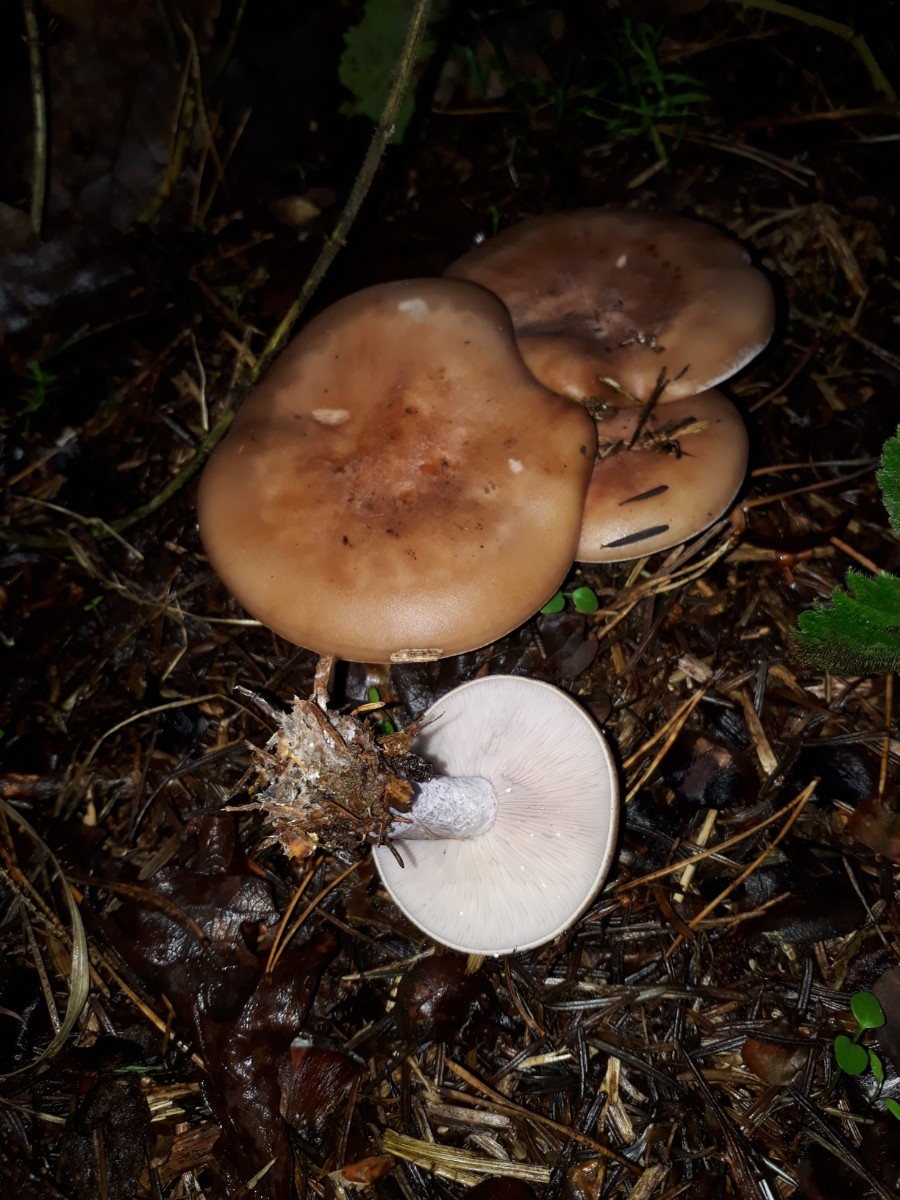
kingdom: Fungi
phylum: Basidiomycota
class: Agaricomycetes
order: Agaricales
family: Tricholomataceae
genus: Lepista
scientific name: Lepista nuda
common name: violet hekseringshat
